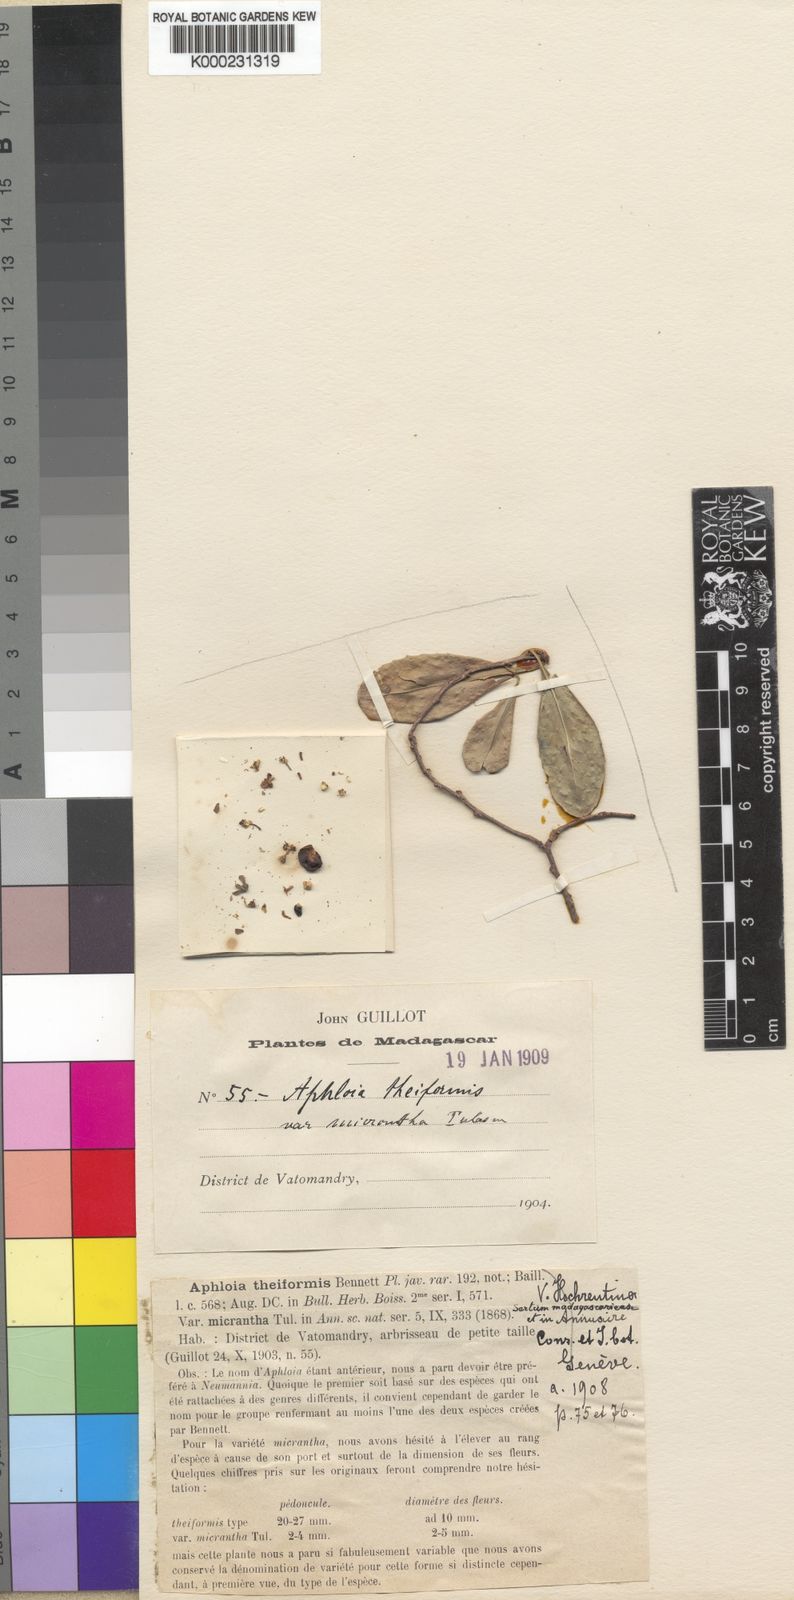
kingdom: Plantae
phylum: Tracheophyta
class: Magnoliopsida
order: Crossosomatales
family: Aphloiaceae
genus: Aphloia
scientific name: Aphloia theiformis
